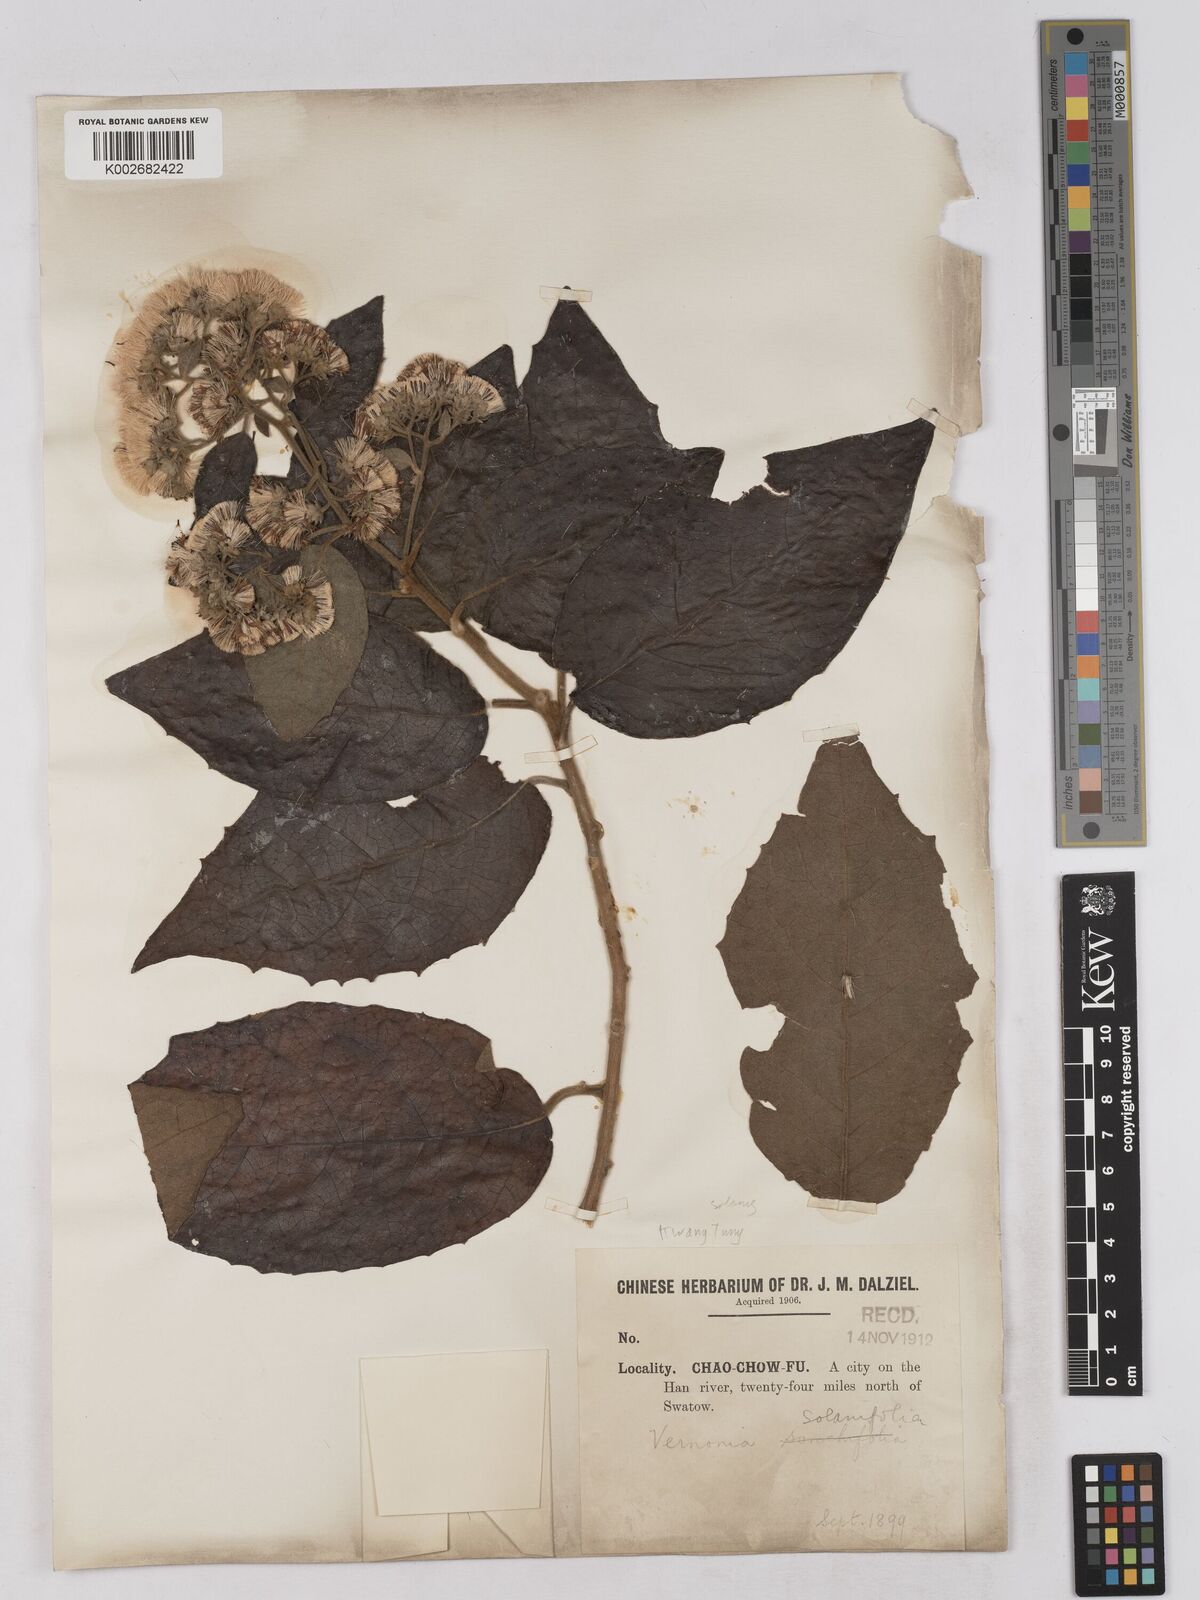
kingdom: Plantae
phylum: Tracheophyta
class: Magnoliopsida
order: Asterales
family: Asteraceae
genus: Strobocalyx
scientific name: Strobocalyx solanifolia
